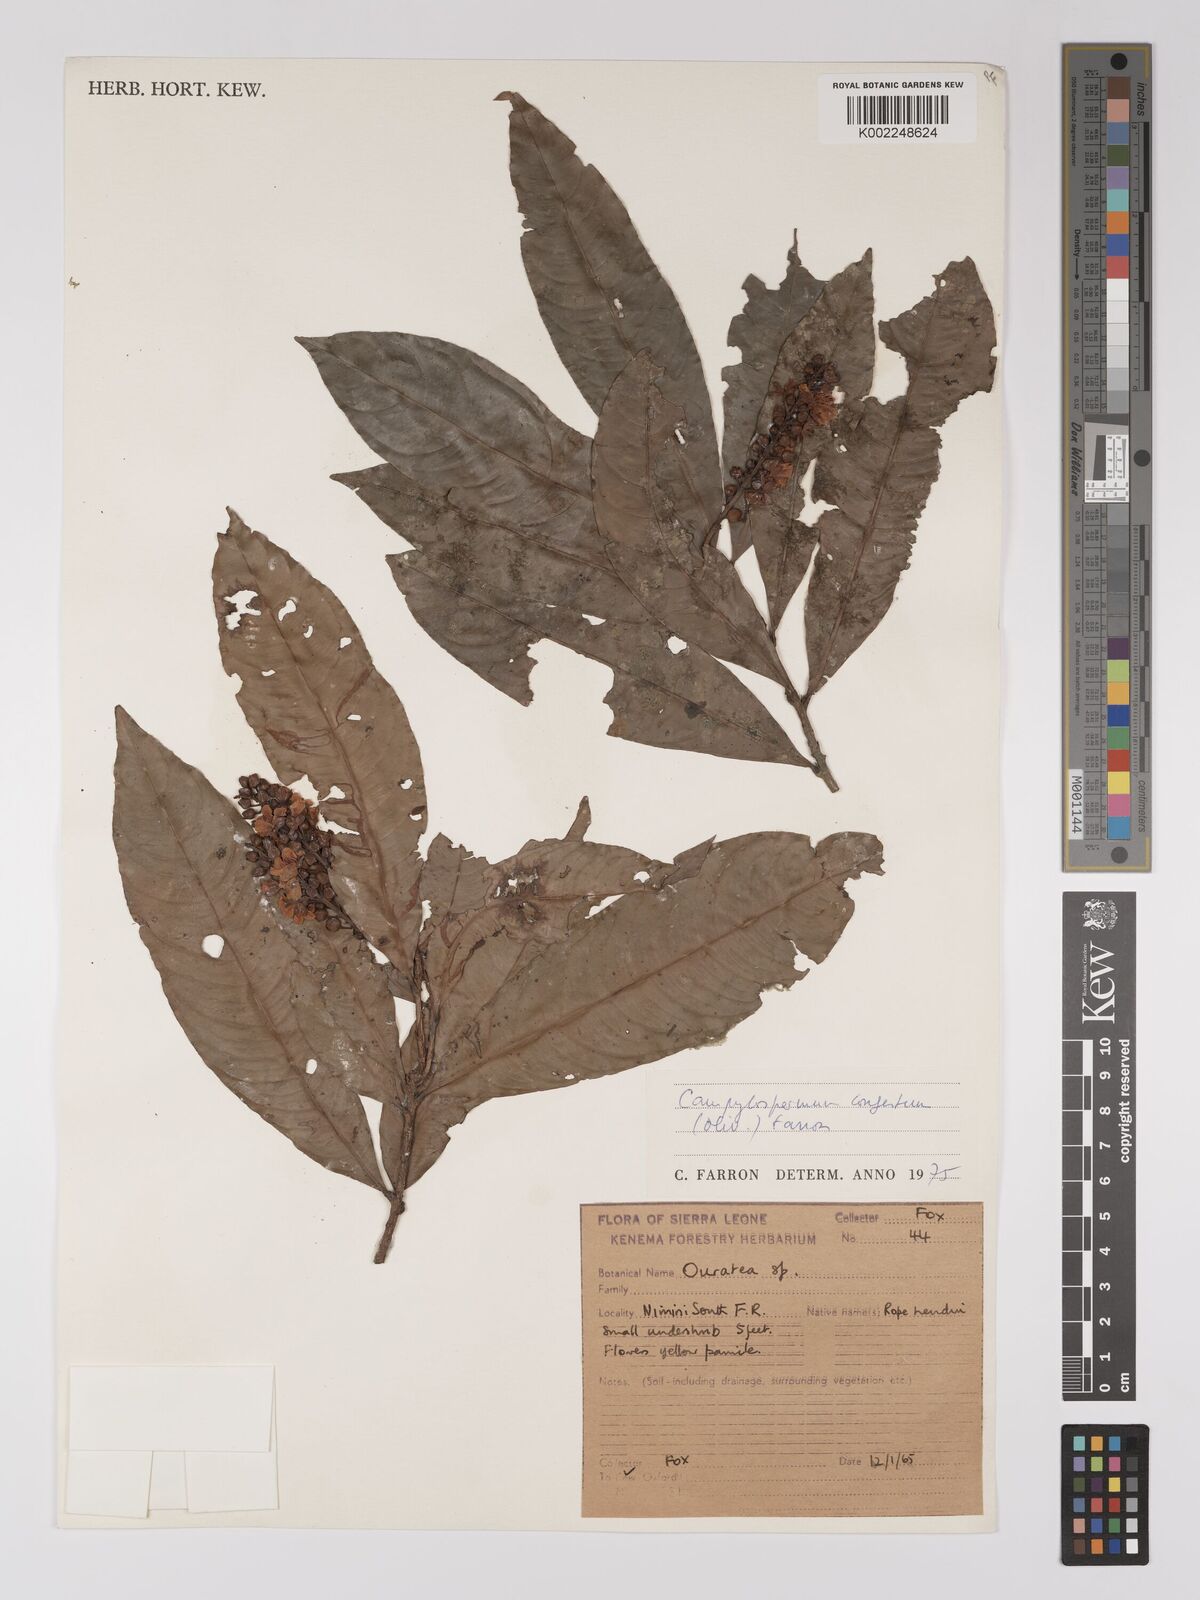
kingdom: Plantae
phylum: Tracheophyta
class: Magnoliopsida
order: Malpighiales
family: Ochnaceae
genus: Campylospermum
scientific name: Campylospermum congestum
